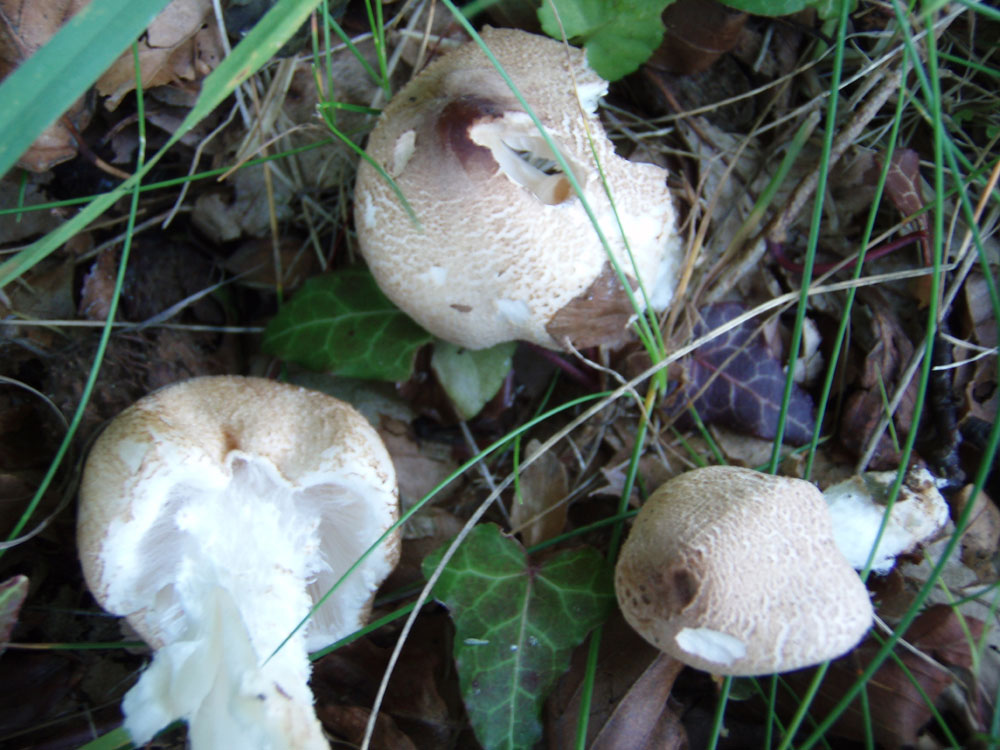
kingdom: Fungi
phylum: Basidiomycota
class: Agaricomycetes
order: Agaricales
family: Agaricaceae
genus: Lepiota
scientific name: Lepiota clypeolaria
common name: flosset parasolhat
